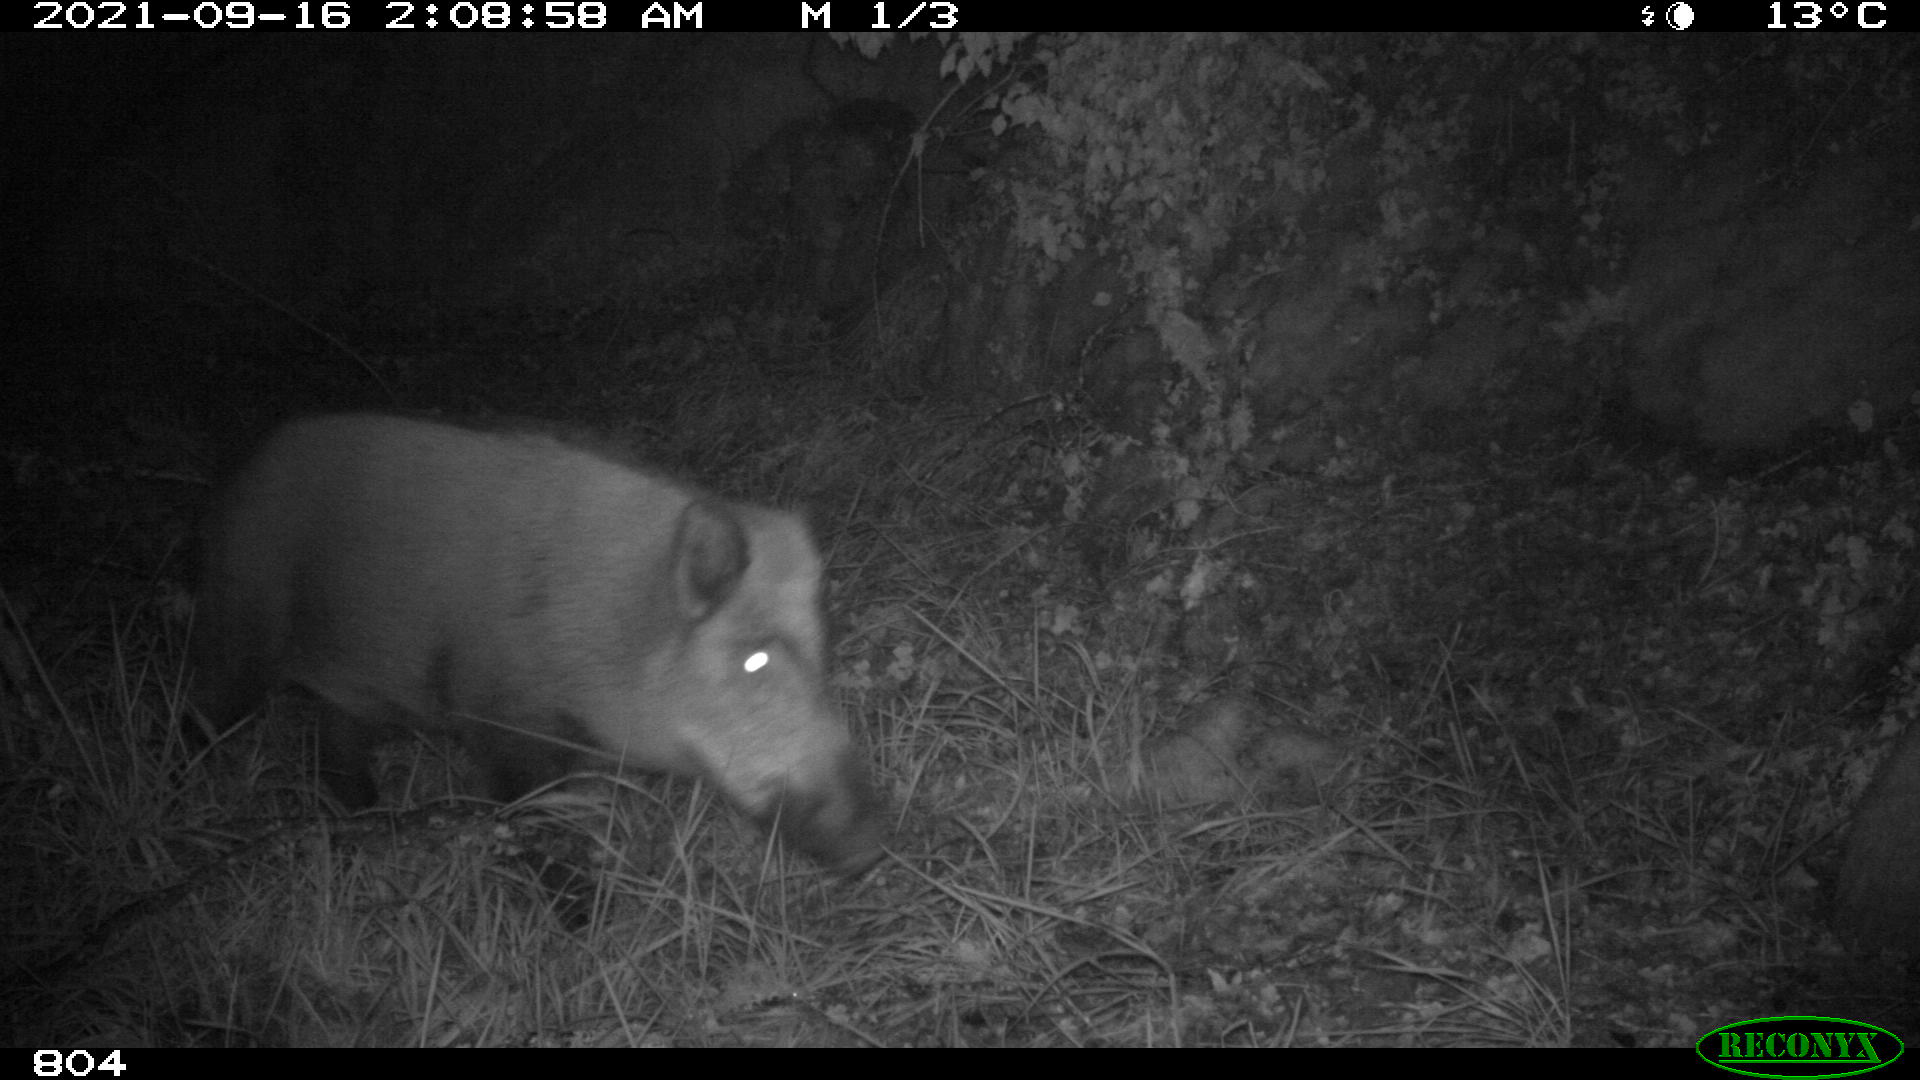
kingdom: Animalia
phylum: Chordata
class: Mammalia
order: Artiodactyla
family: Suidae
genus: Sus
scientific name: Sus scrofa
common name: Wild boar
